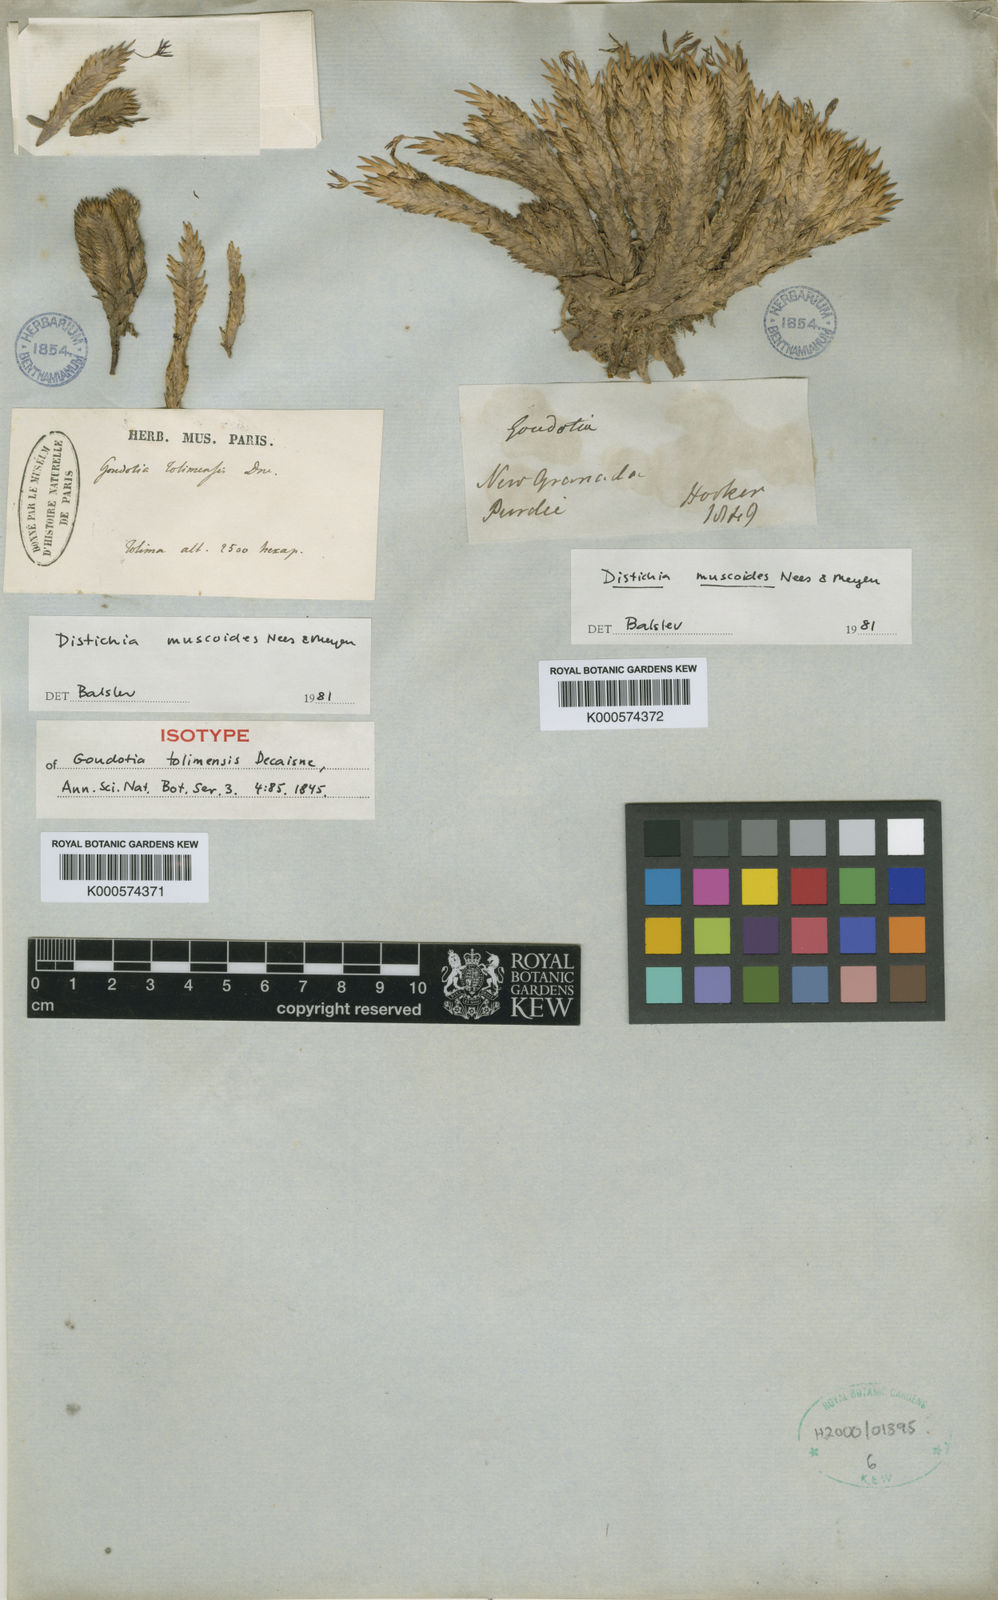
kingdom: Plantae
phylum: Tracheophyta
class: Liliopsida
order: Poales
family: Juncaceae
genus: Distichia
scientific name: Distichia muscoides
